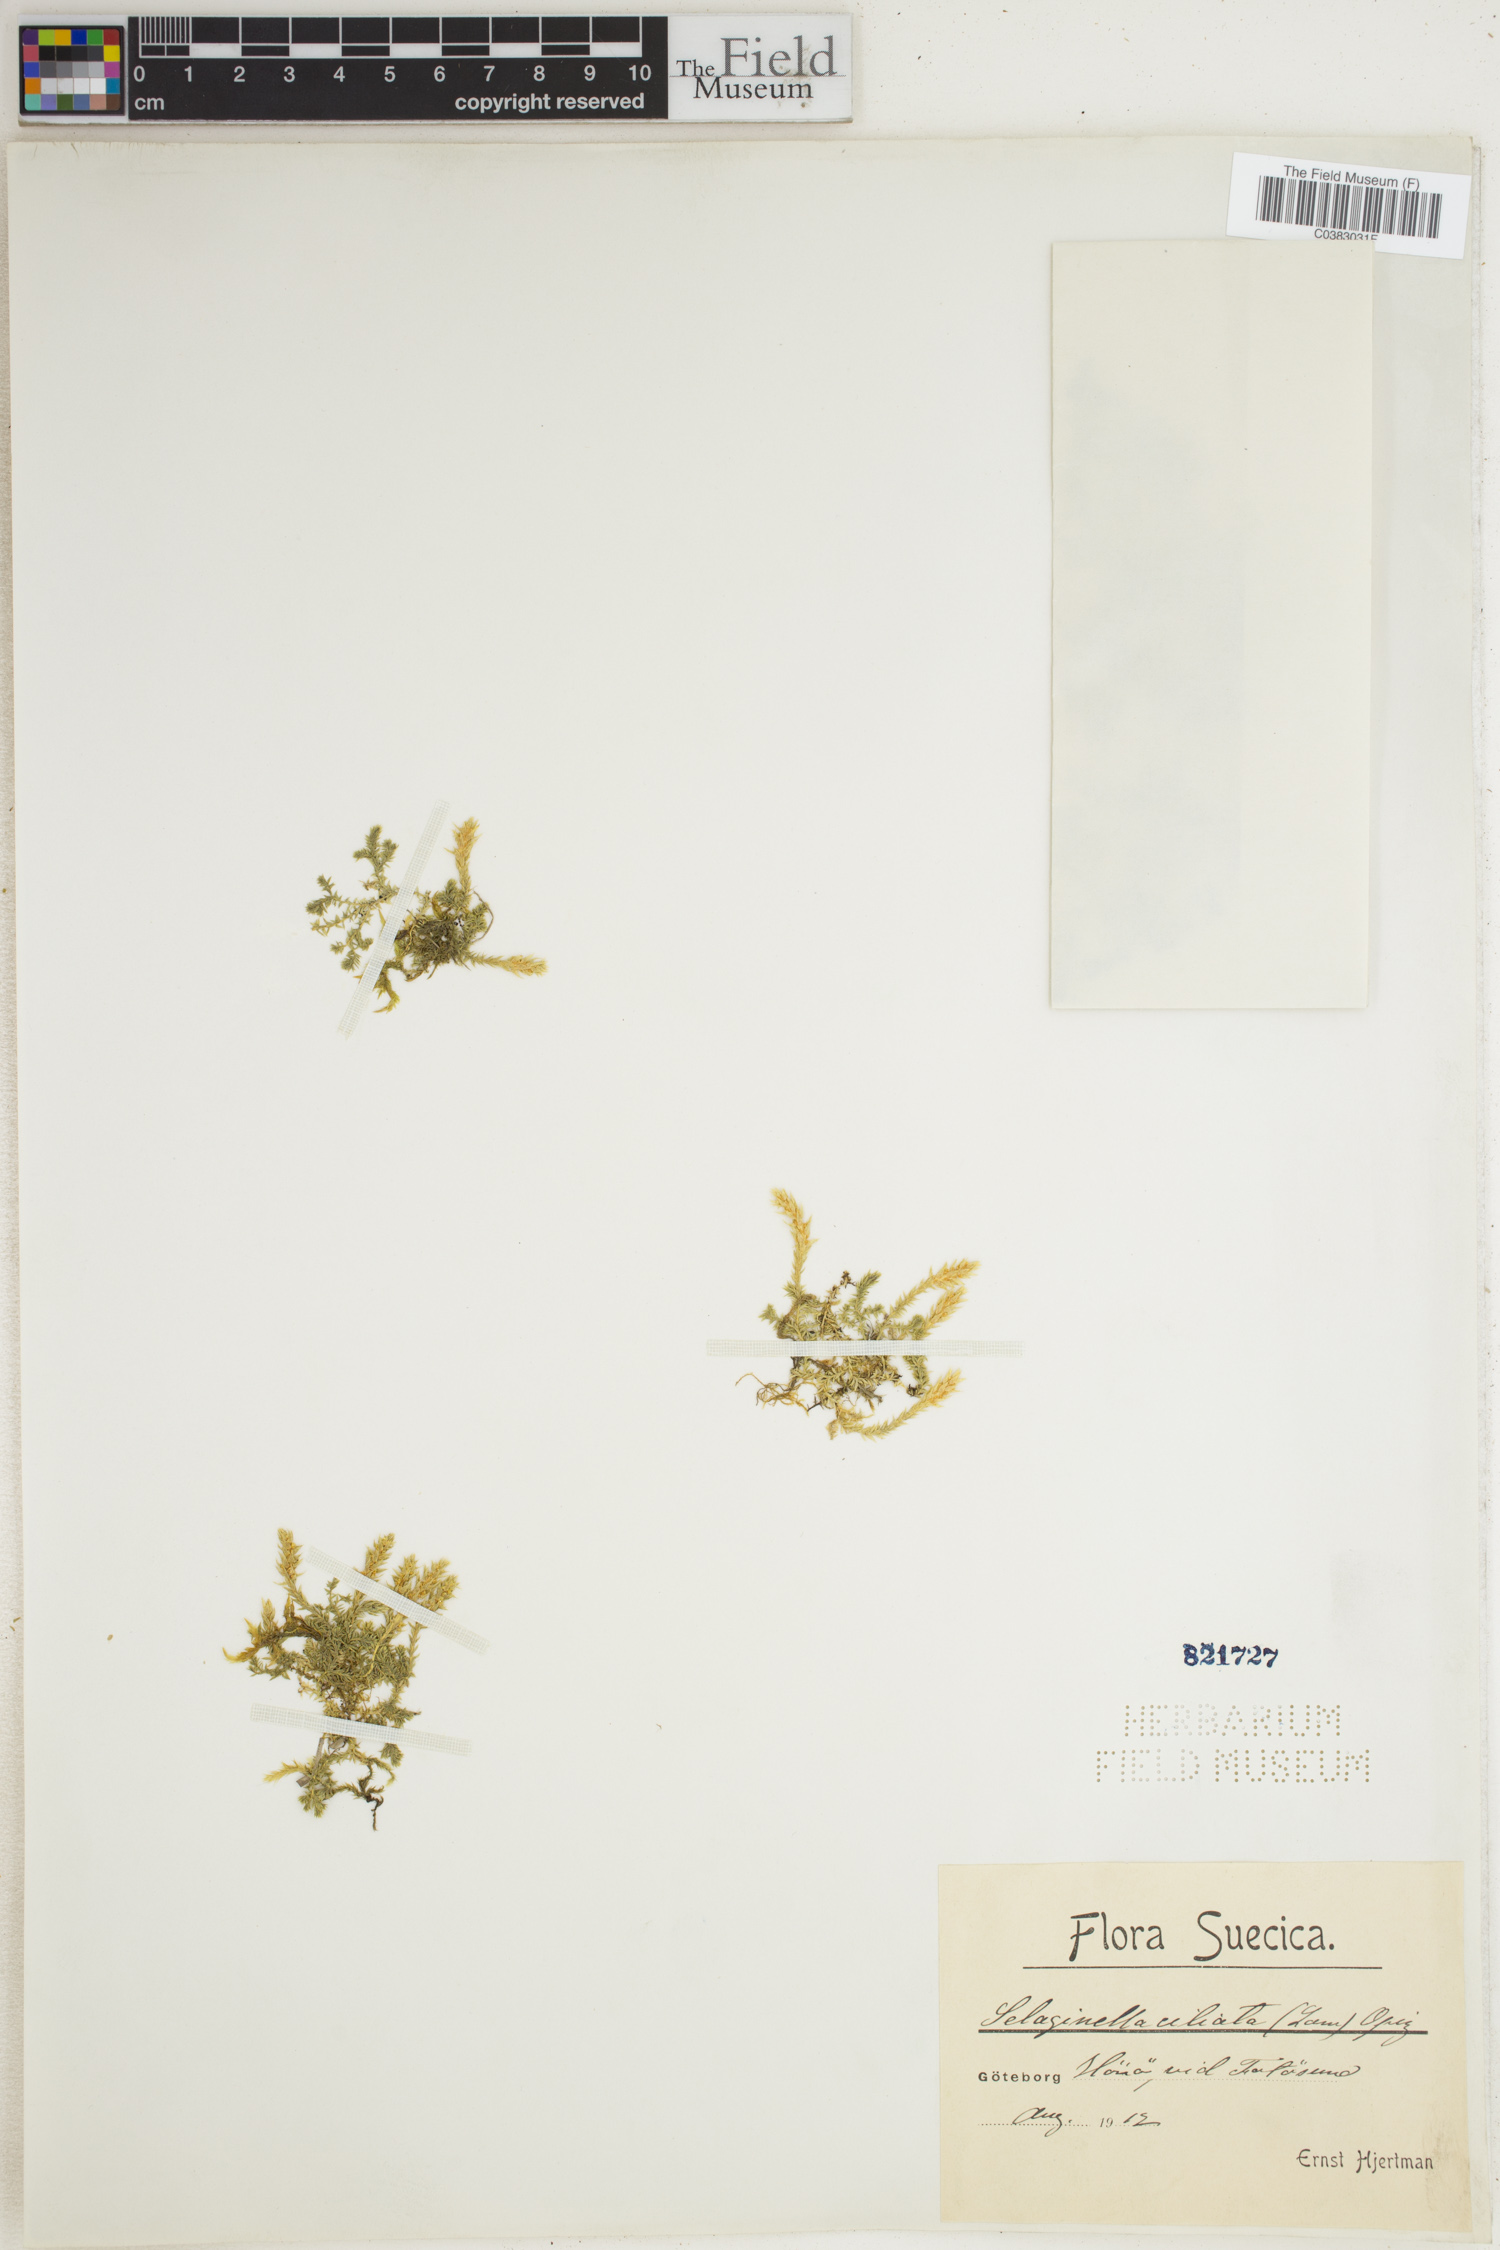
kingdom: Plantae
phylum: Tracheophyta
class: Lycopodiopsida
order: Selaginellales
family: Selaginellaceae
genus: Selaginella
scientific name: Selaginella selaginoides
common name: Prickly mountain-moss
